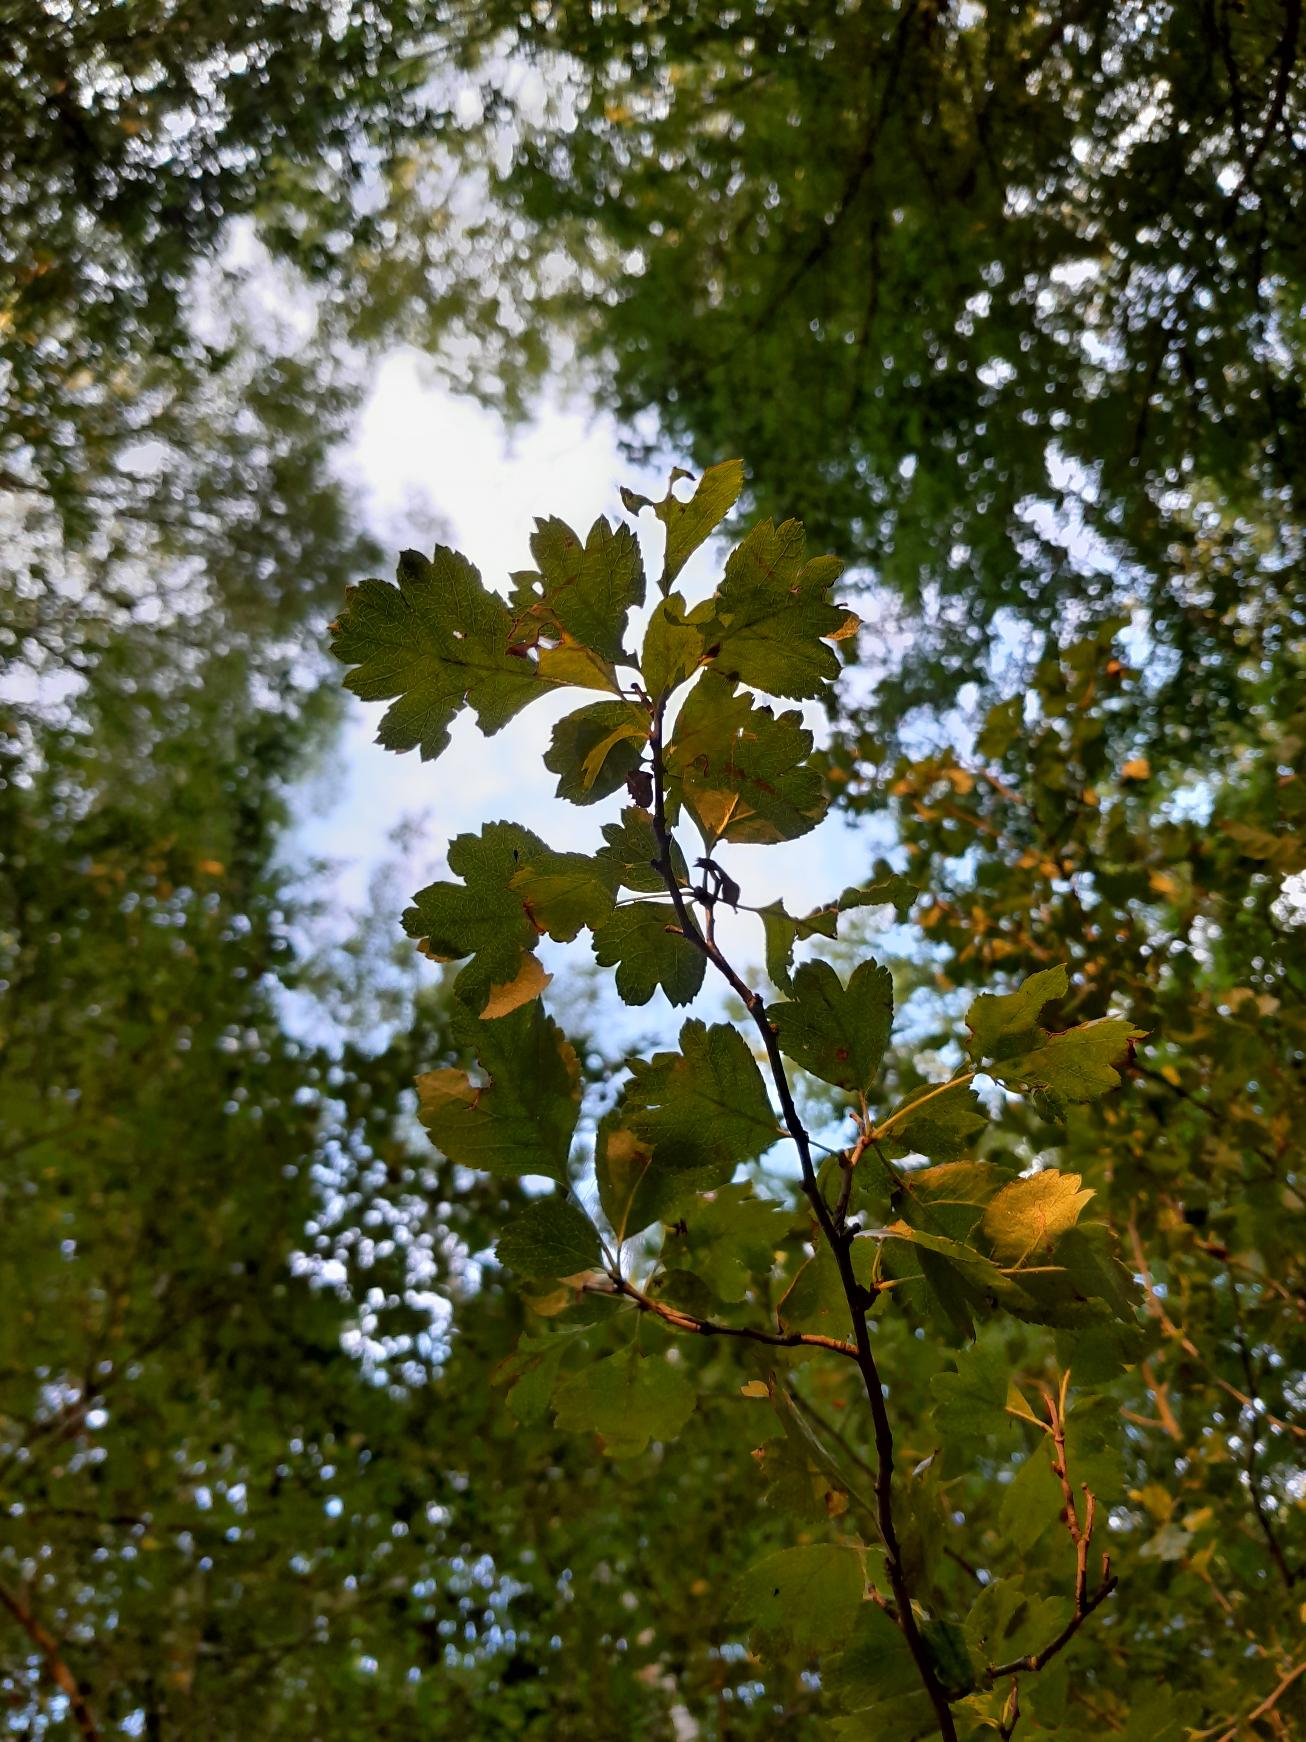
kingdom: Plantae
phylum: Tracheophyta
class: Magnoliopsida
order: Rosales
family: Rosaceae
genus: Crataegus
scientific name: Crataegus subsphaerica
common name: Engriflet hvidtjørn × koral-hvidtjørn
